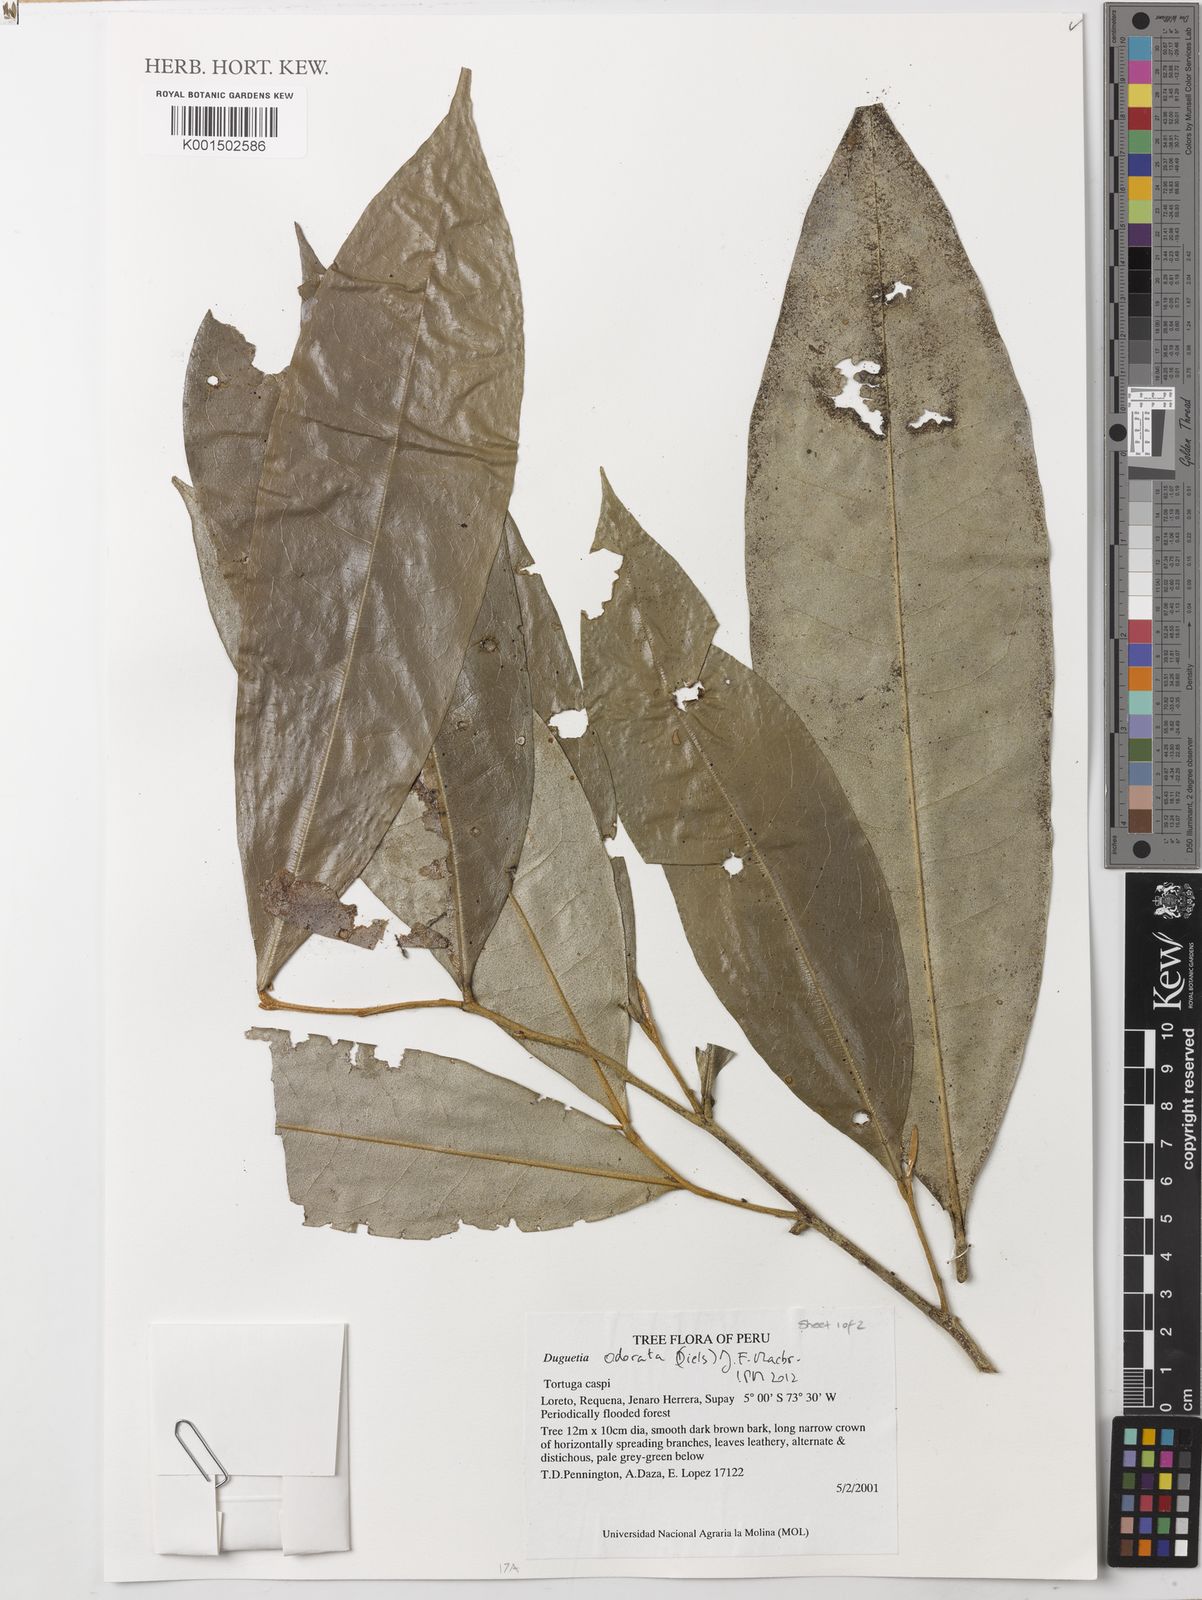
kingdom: Plantae
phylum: Tracheophyta
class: Magnoliopsida
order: Magnoliales
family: Annonaceae
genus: Duguetia
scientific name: Duguetia odorata
